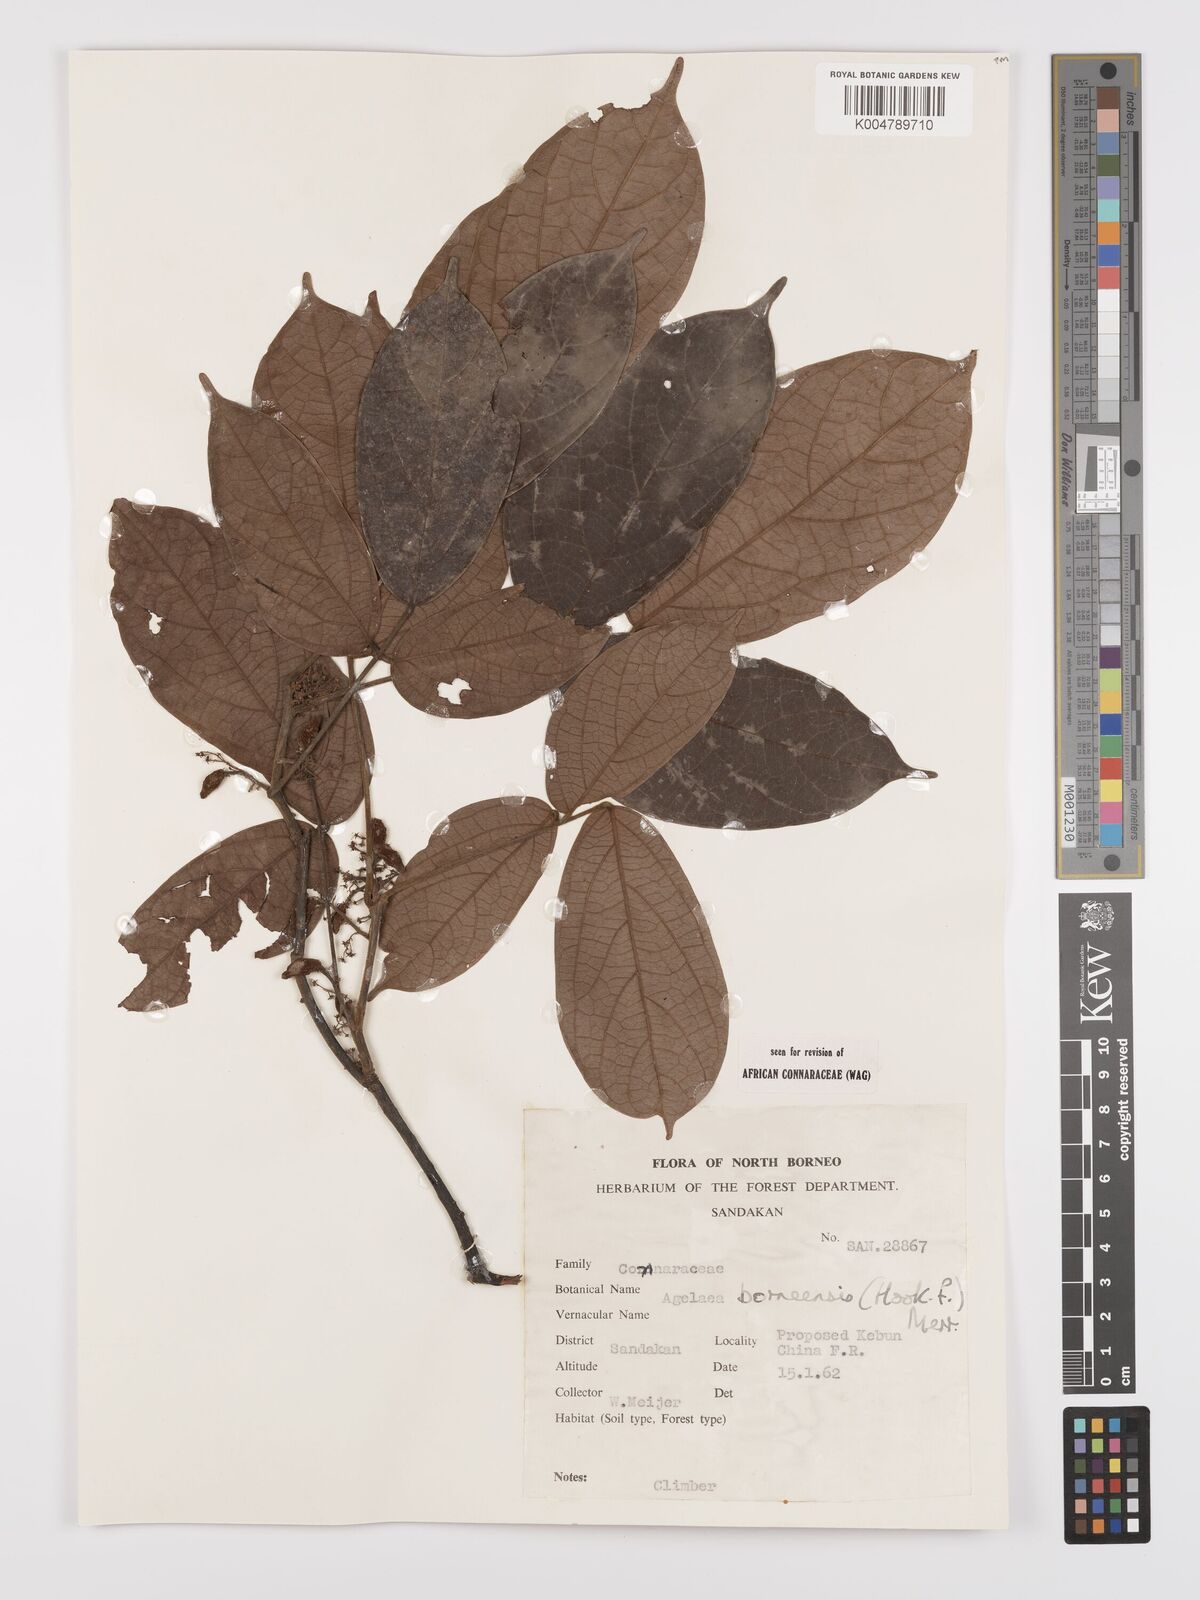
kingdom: Plantae
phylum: Tracheophyta
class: Magnoliopsida
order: Oxalidales
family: Connaraceae
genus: Agelaea
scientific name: Agelaea borneensis
